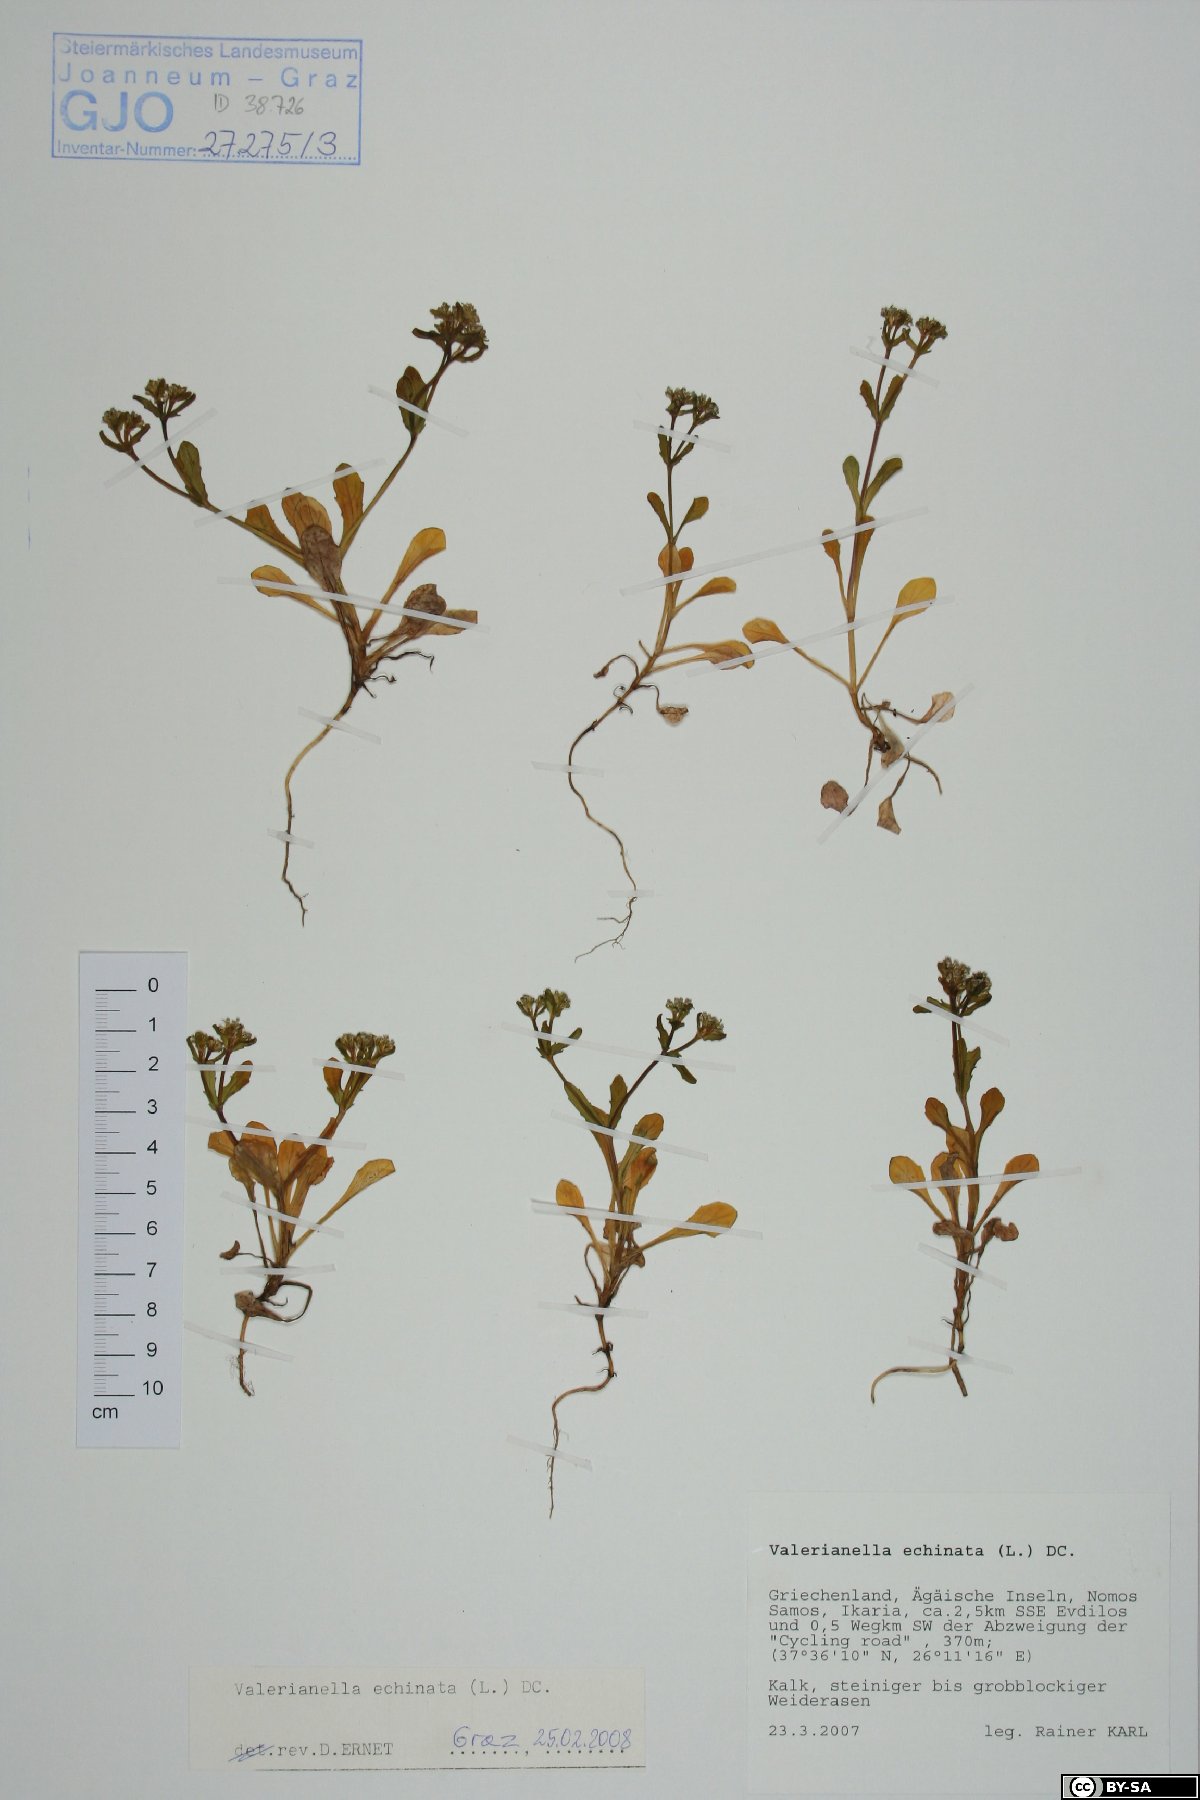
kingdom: Plantae
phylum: Tracheophyta
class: Magnoliopsida
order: Dipsacales
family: Caprifoliaceae
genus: Valerianella
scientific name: Valerianella echinata
